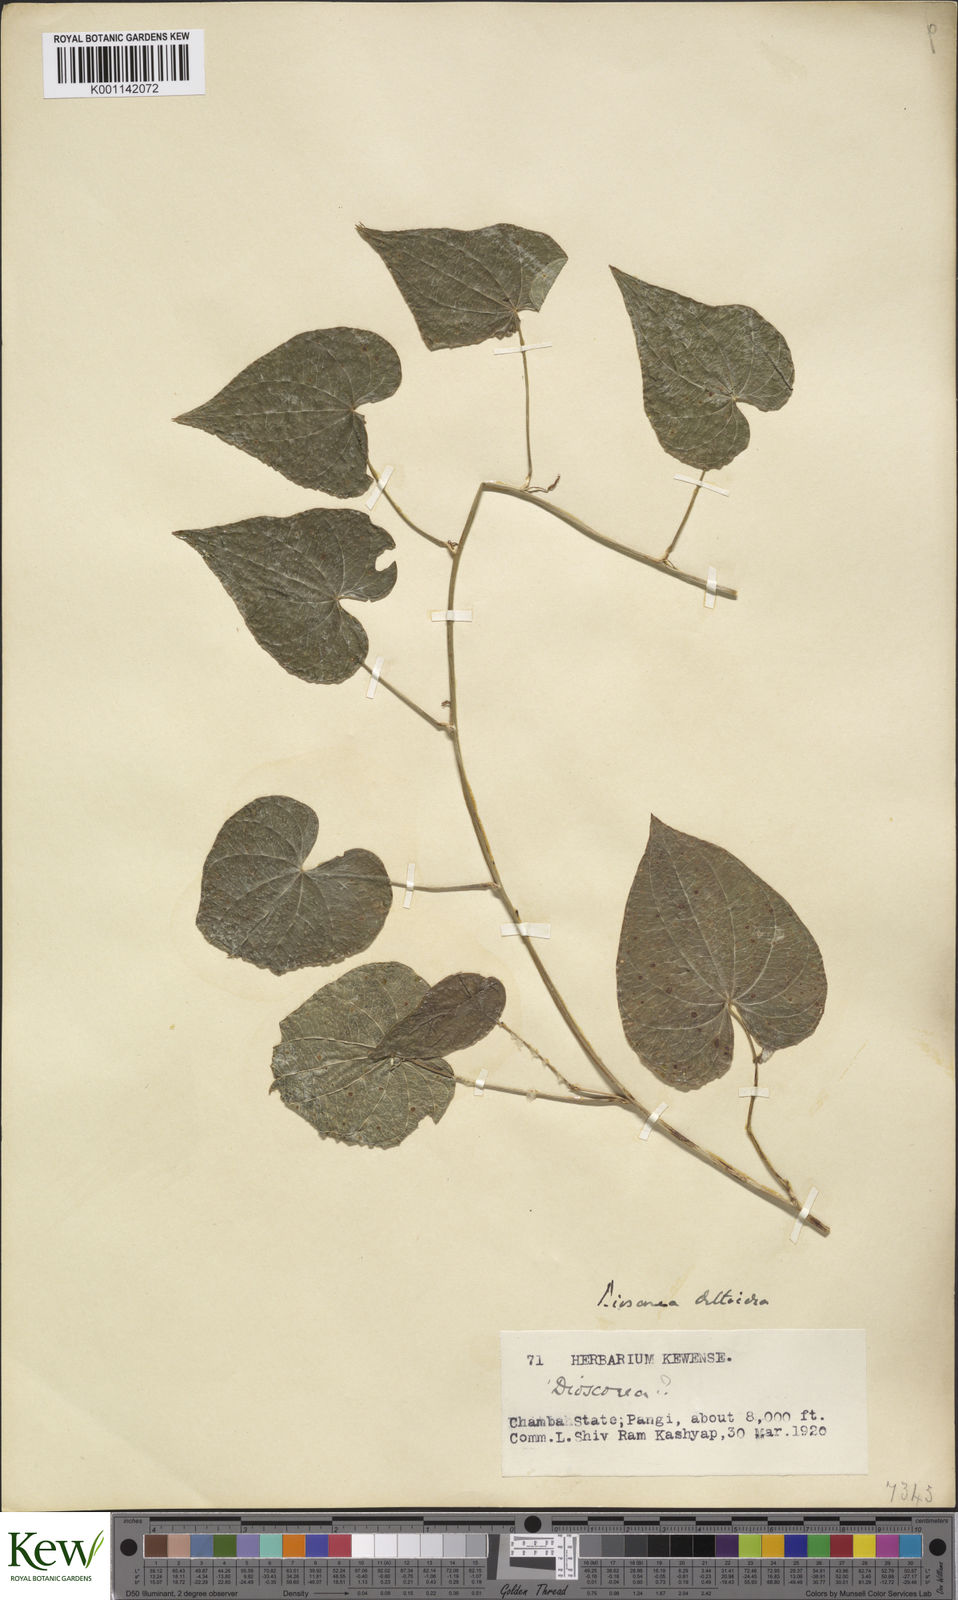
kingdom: Plantae
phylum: Tracheophyta
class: Liliopsida
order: Dioscoreales
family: Dioscoreaceae
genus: Dioscorea
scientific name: Dioscorea deltoidea
